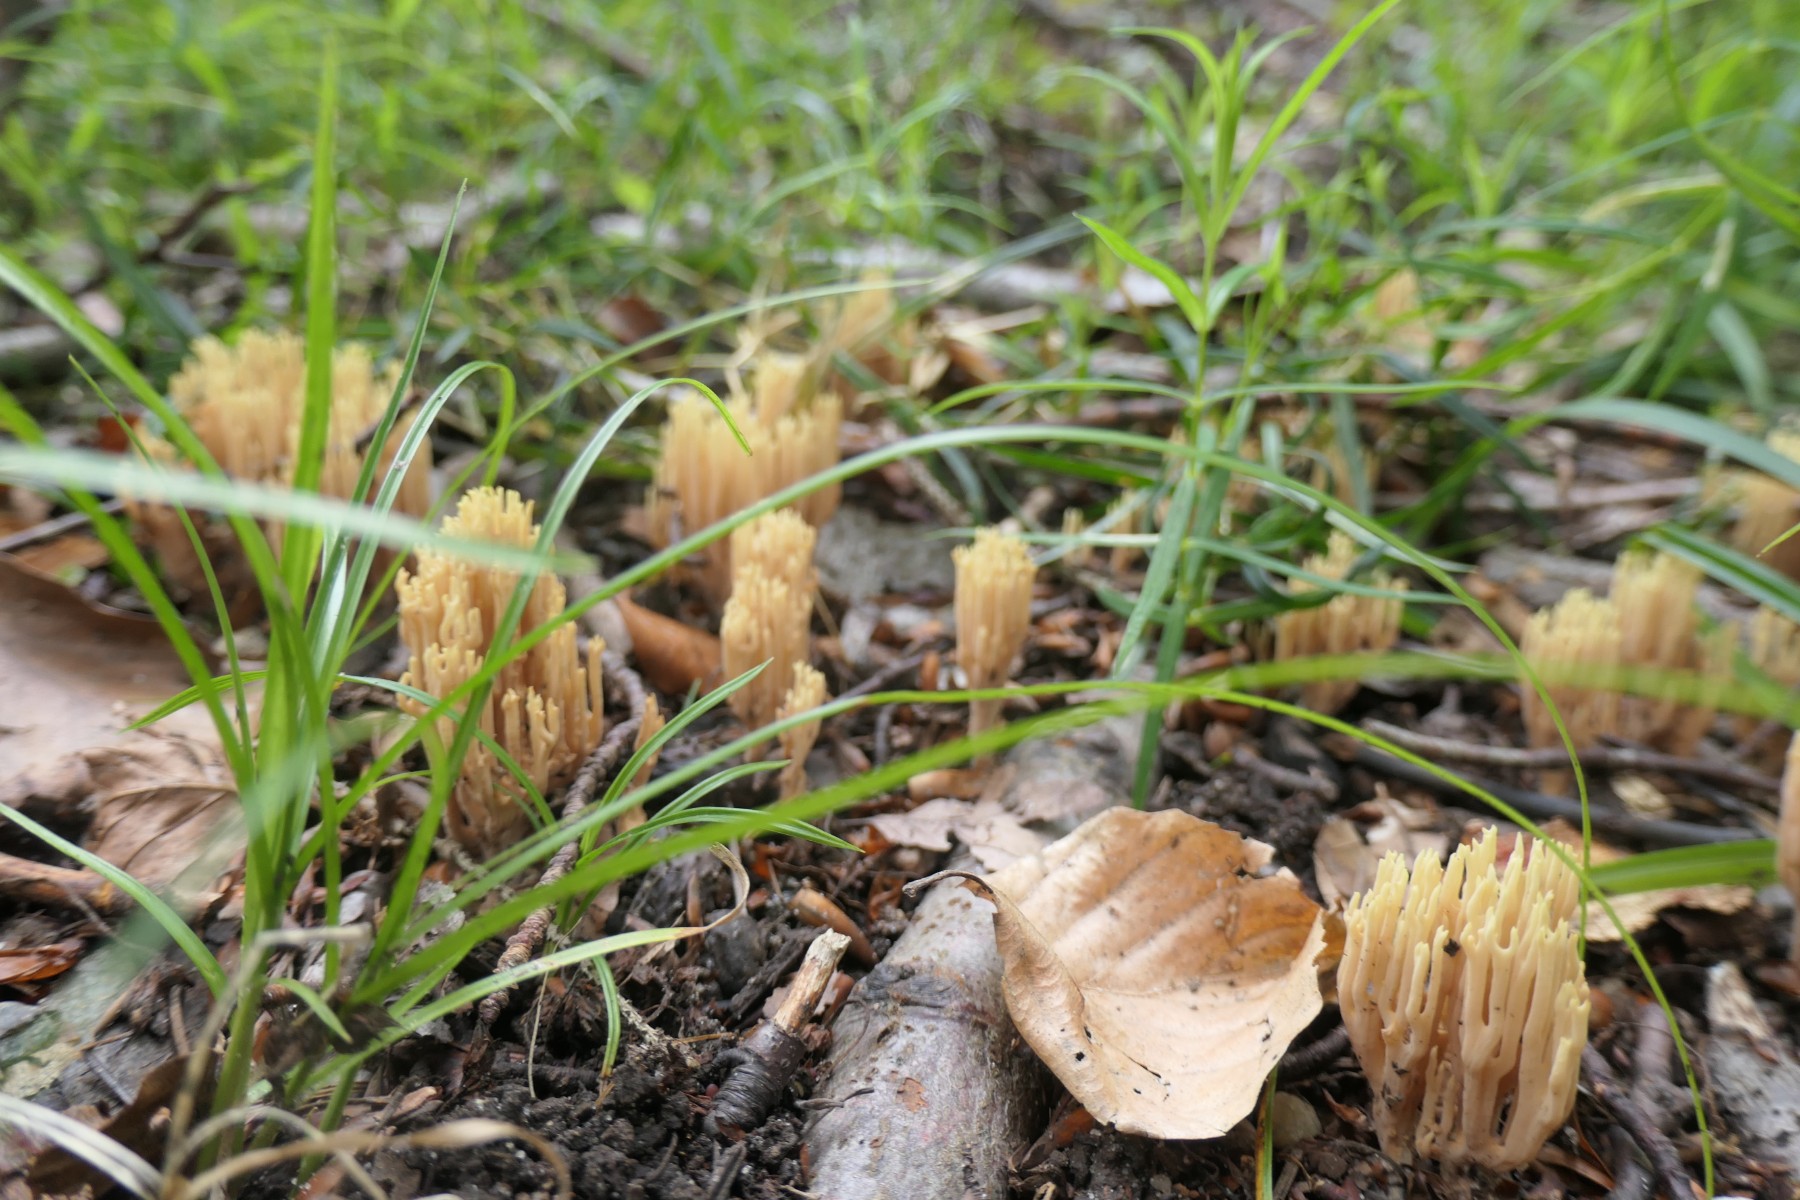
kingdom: Fungi
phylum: Basidiomycota
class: Agaricomycetes
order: Gomphales
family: Gomphaceae
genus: Ramaria
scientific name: Ramaria stricta
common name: rank koralsvamp
